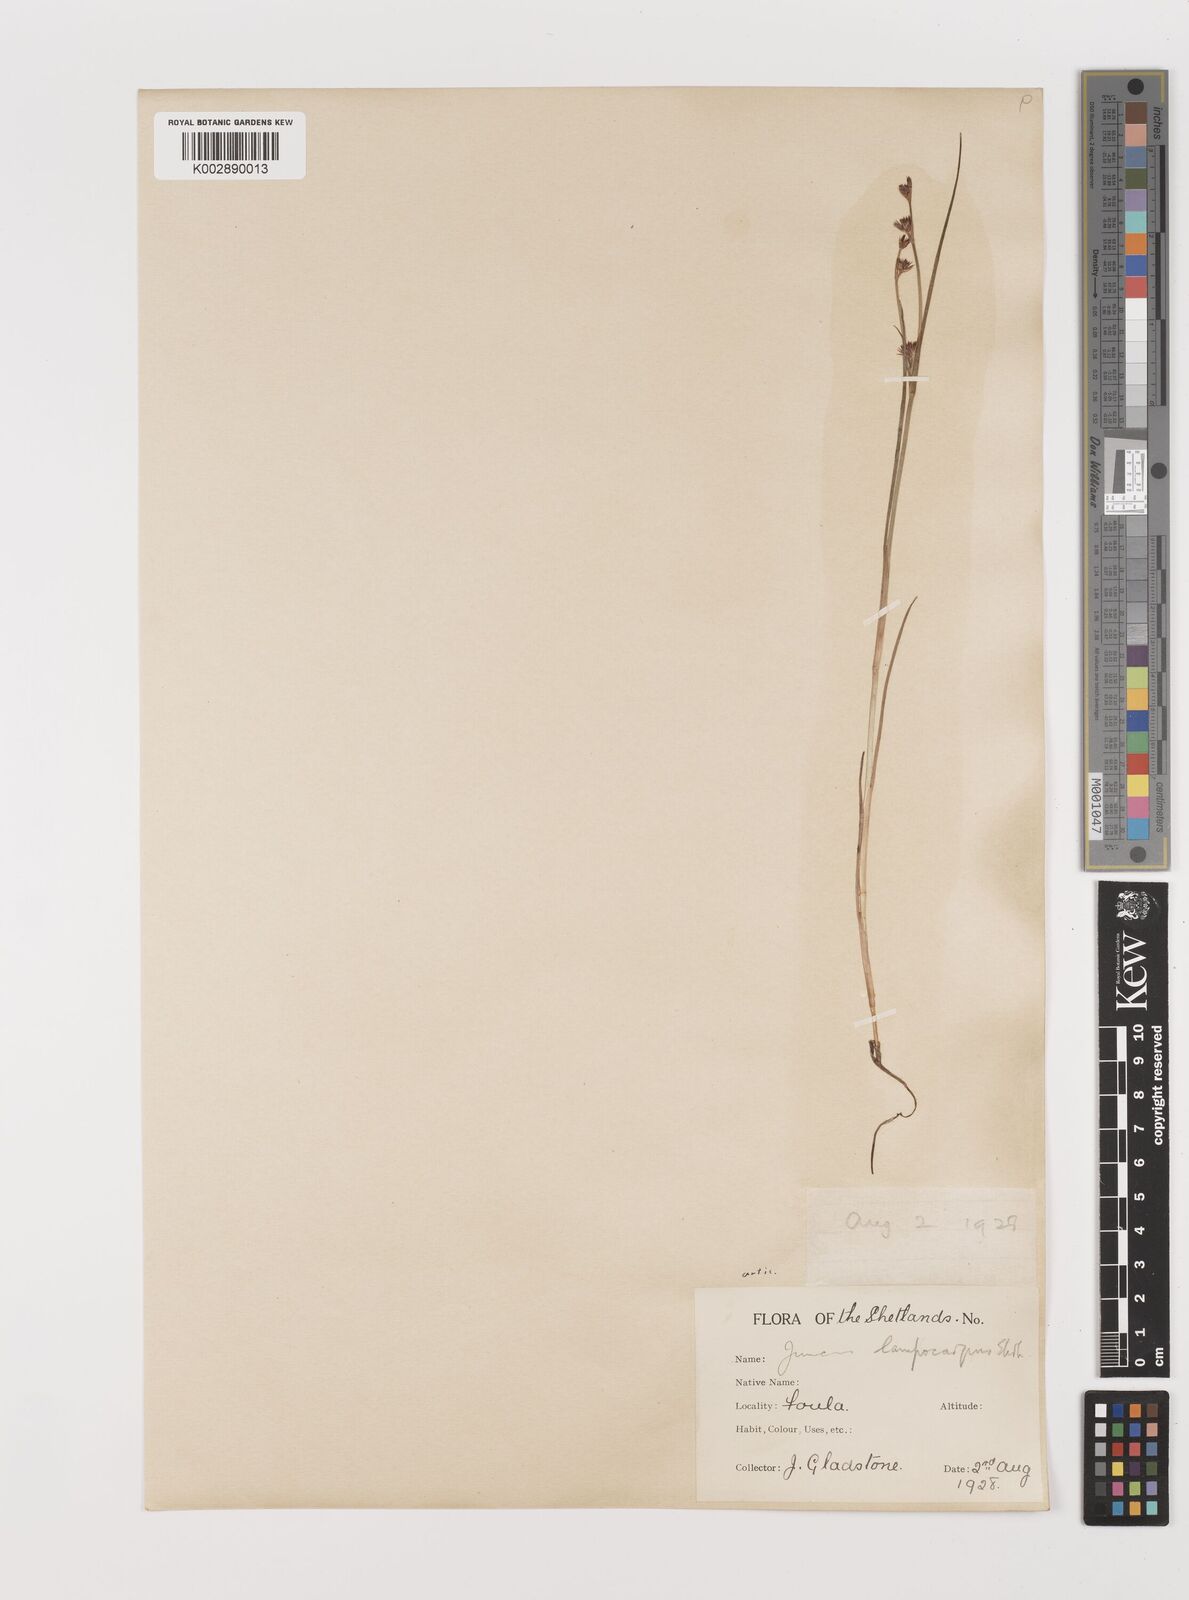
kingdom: Plantae
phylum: Tracheophyta
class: Liliopsida
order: Poales
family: Juncaceae
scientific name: Juncaceae
